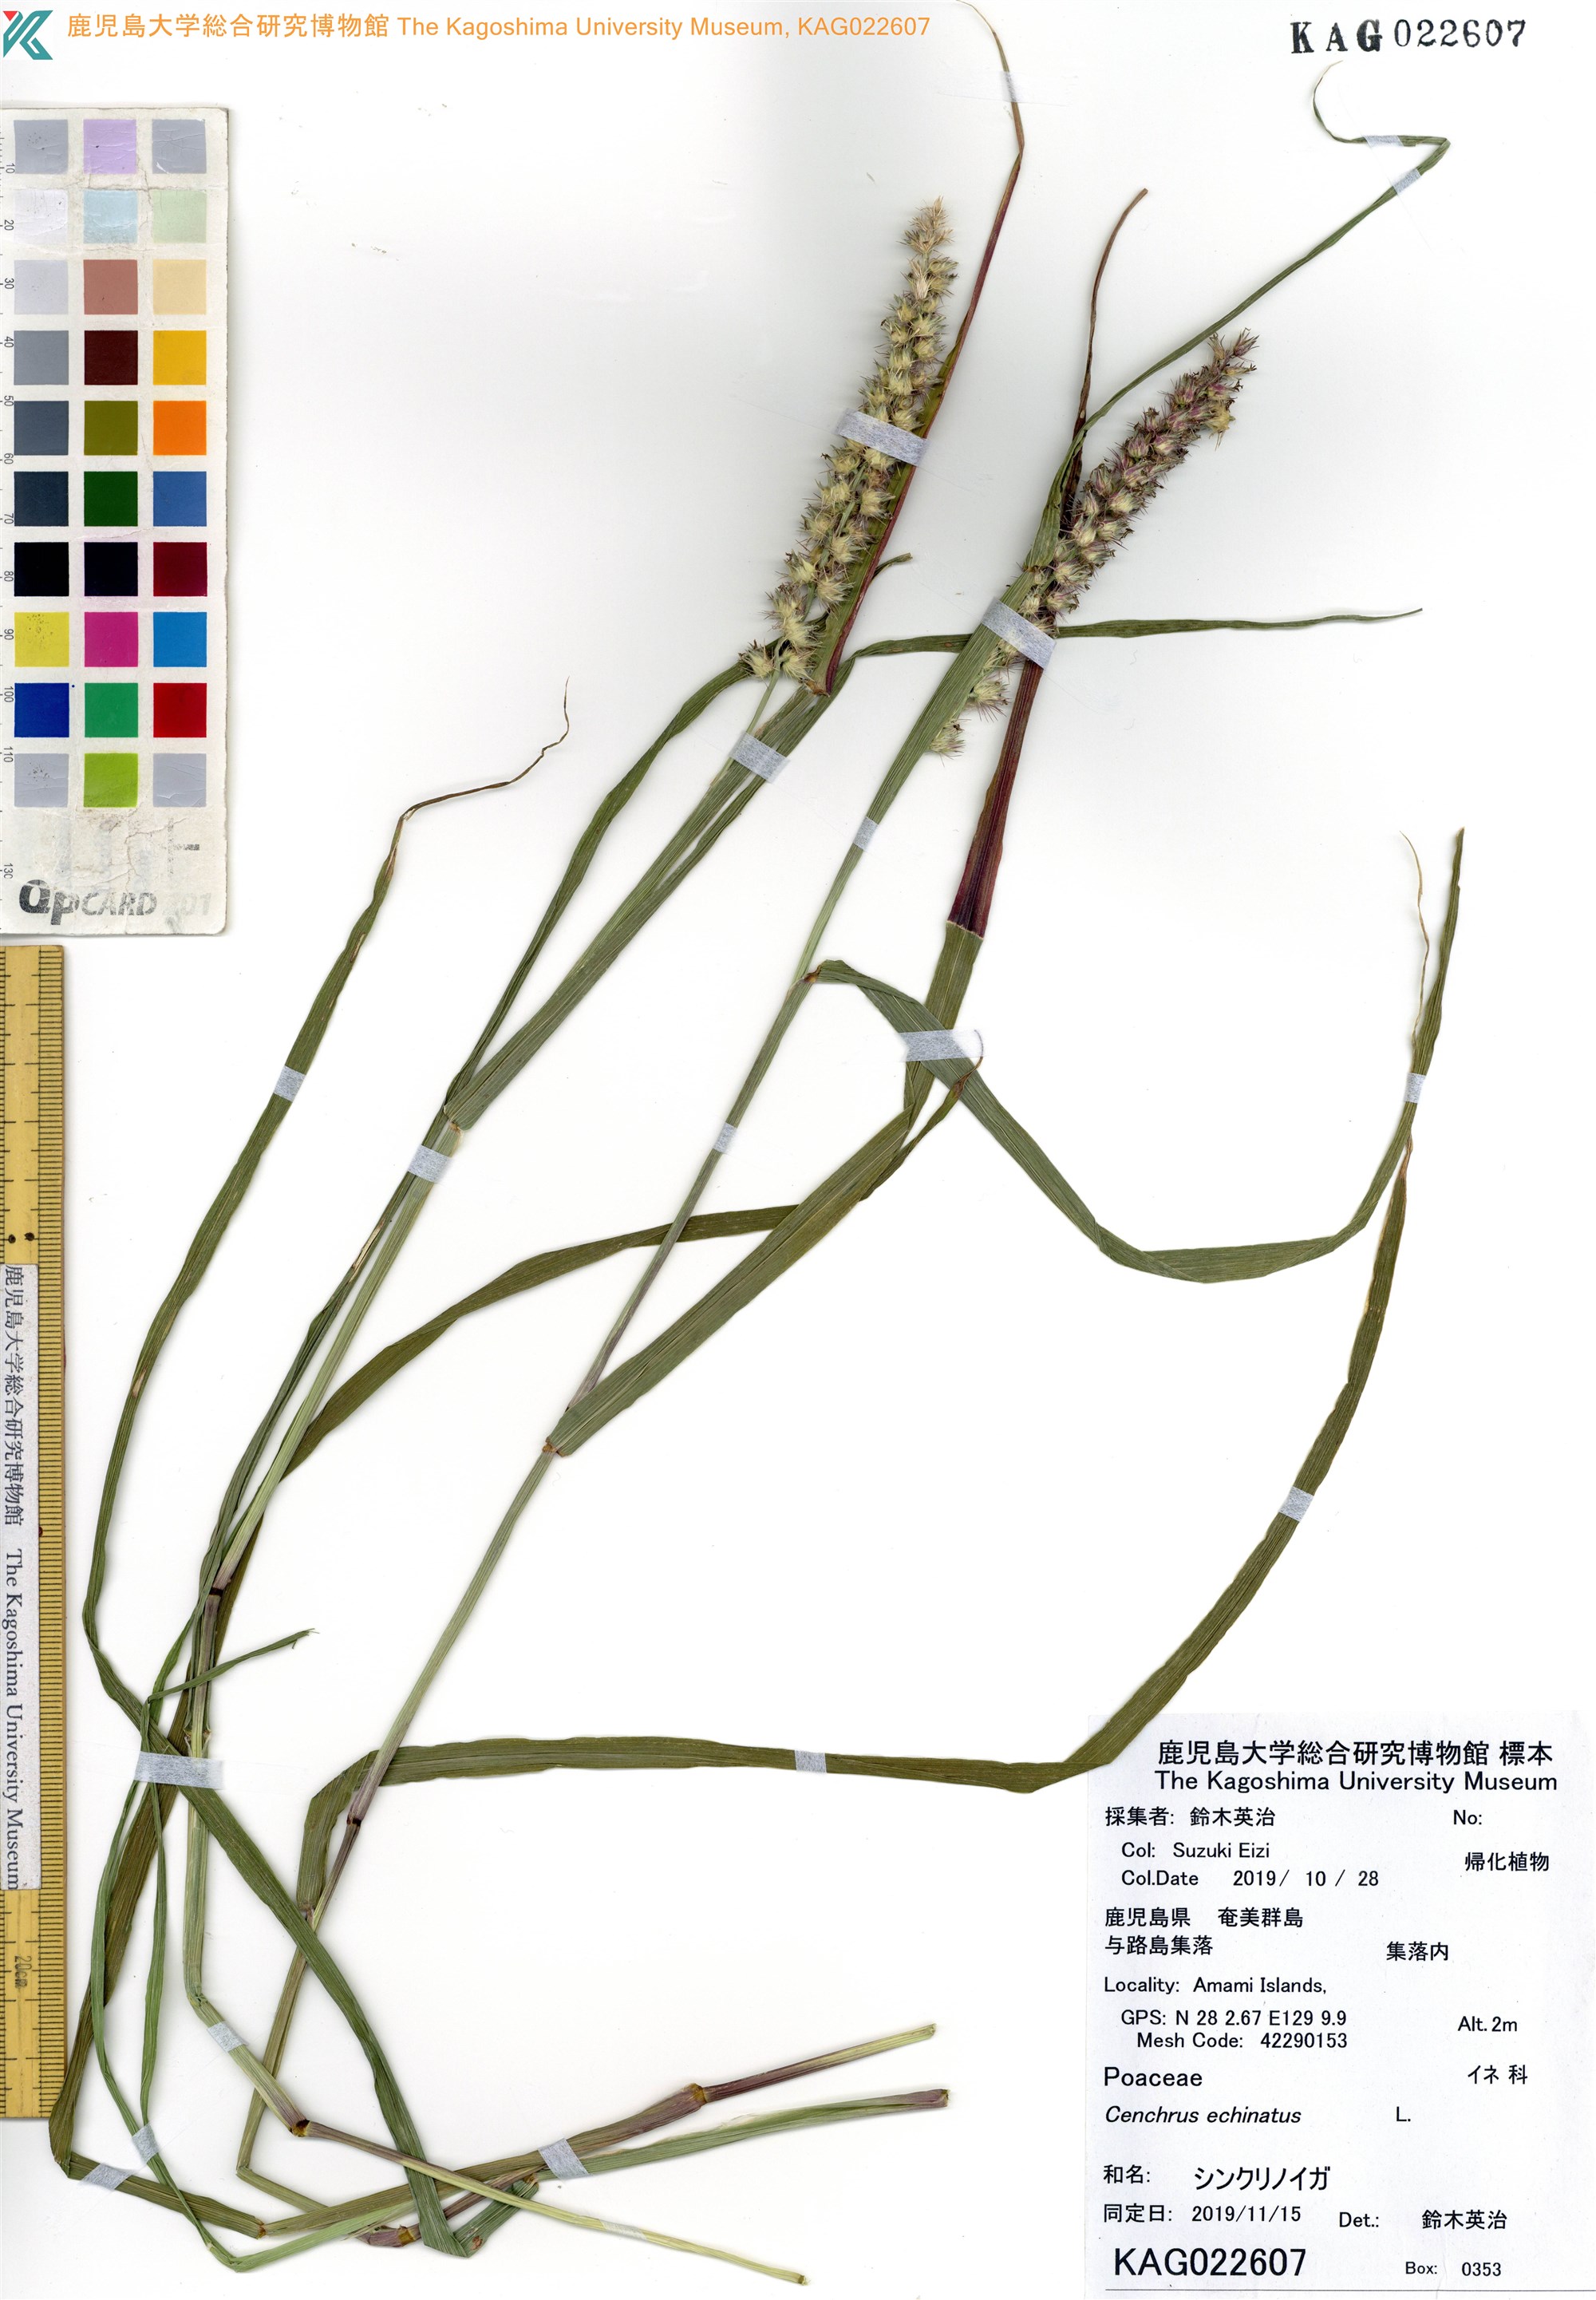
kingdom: Plantae
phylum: Tracheophyta
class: Liliopsida
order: Poales
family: Poaceae
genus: Cenchrus
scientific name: Cenchrus echinatus
